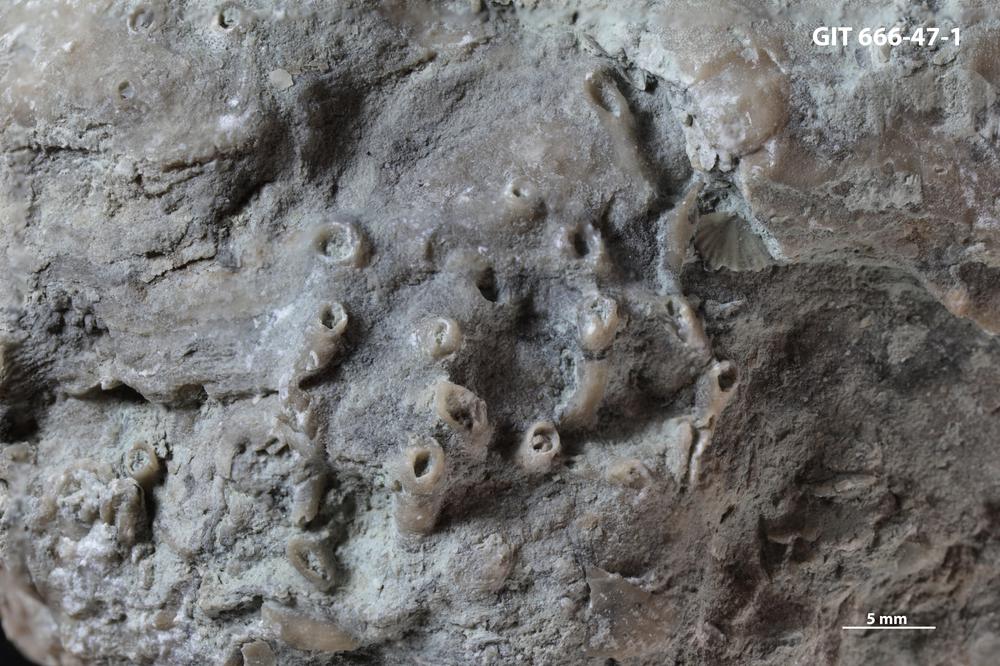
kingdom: Animalia
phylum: Cnidaria
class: Anthozoa
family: Auloporidae
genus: Aulopora
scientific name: Aulopora
